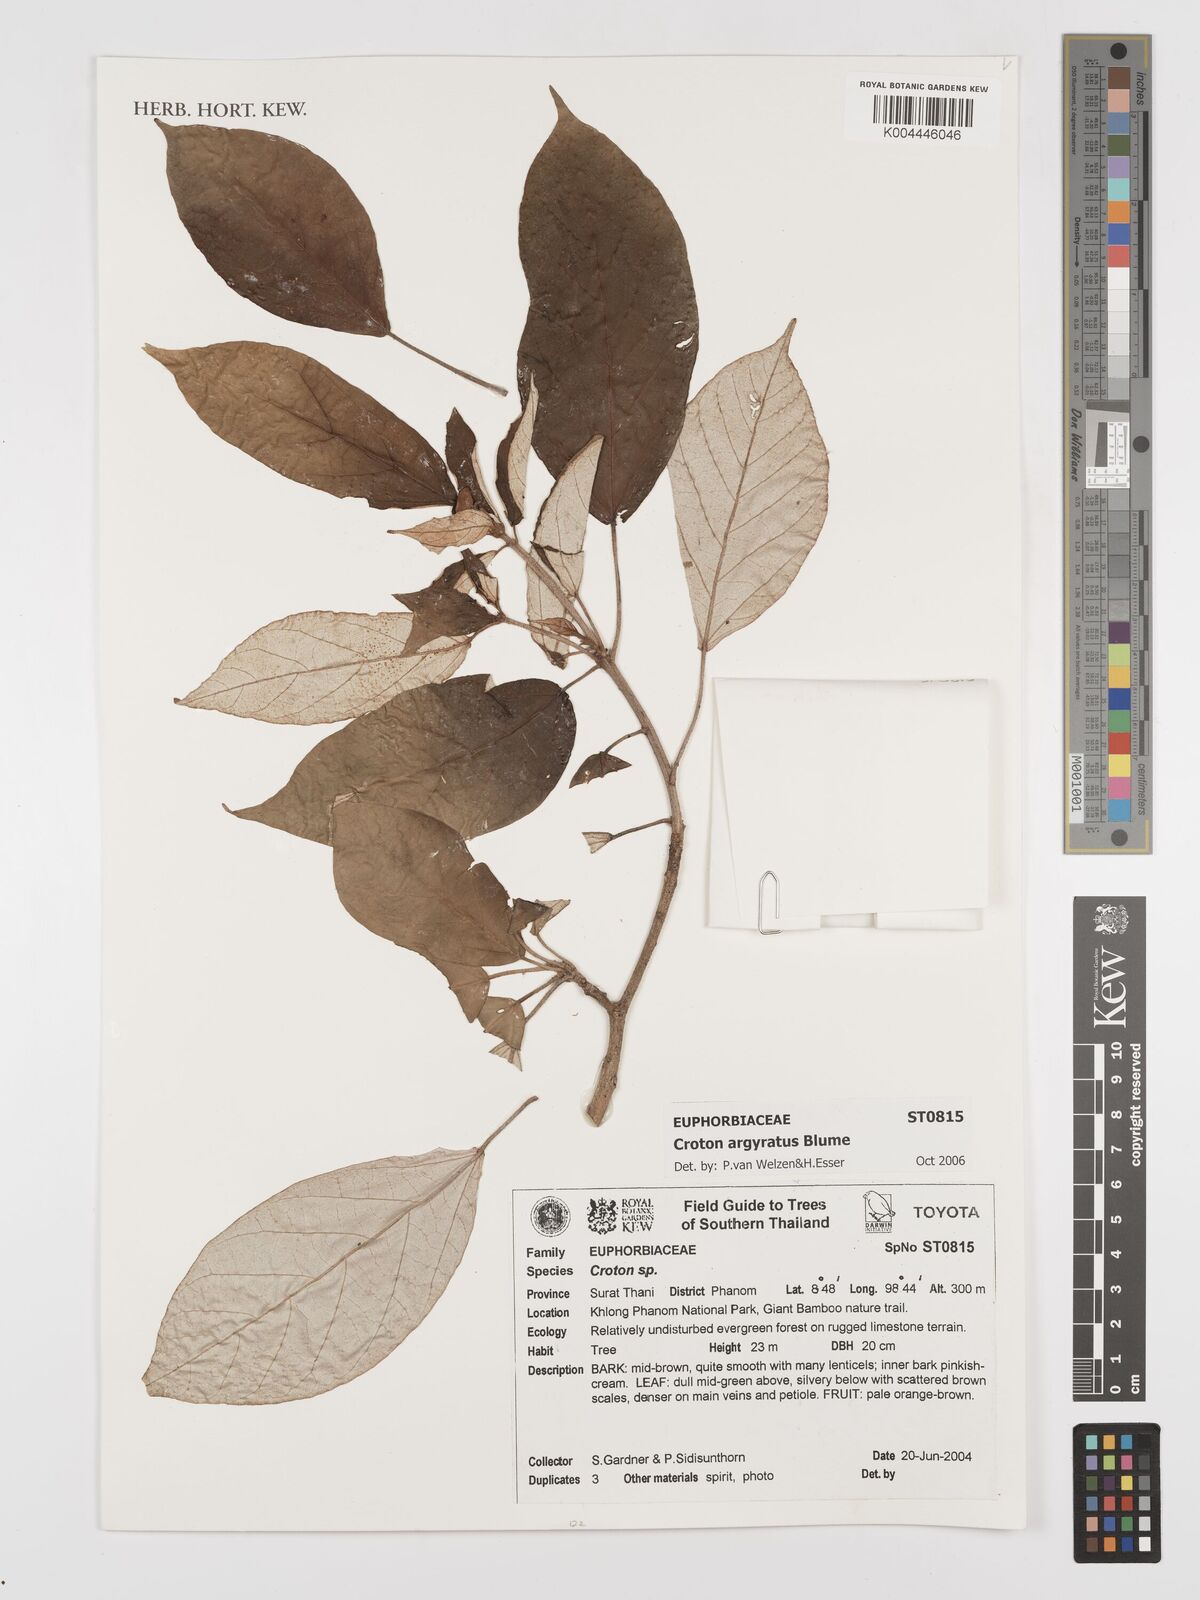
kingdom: Plantae
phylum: Tracheophyta
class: Magnoliopsida
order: Malpighiales
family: Euphorbiaceae
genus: Croton
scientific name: Croton argyratus
